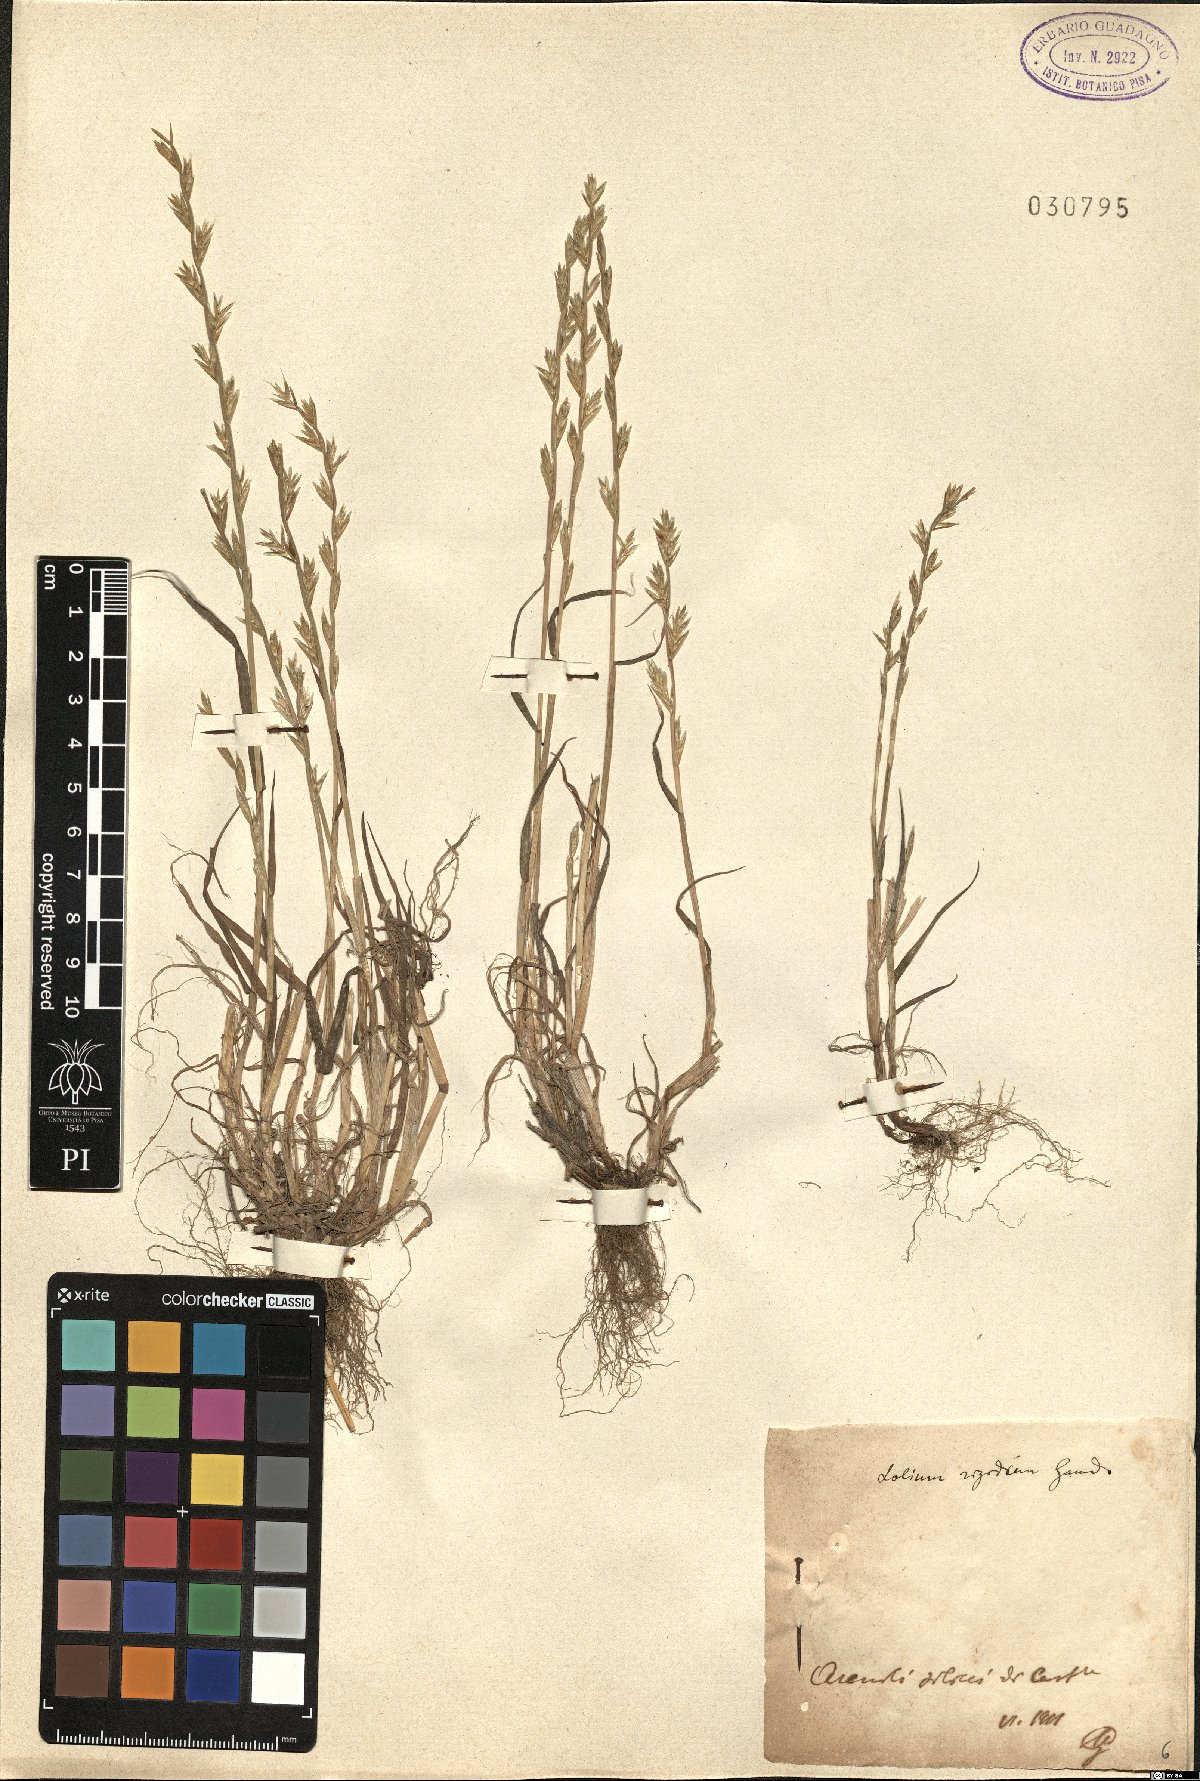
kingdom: Plantae
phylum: Tracheophyta
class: Liliopsida
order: Poales
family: Poaceae
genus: Lolium
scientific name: Lolium rigidum
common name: Wimmera ryegrass
